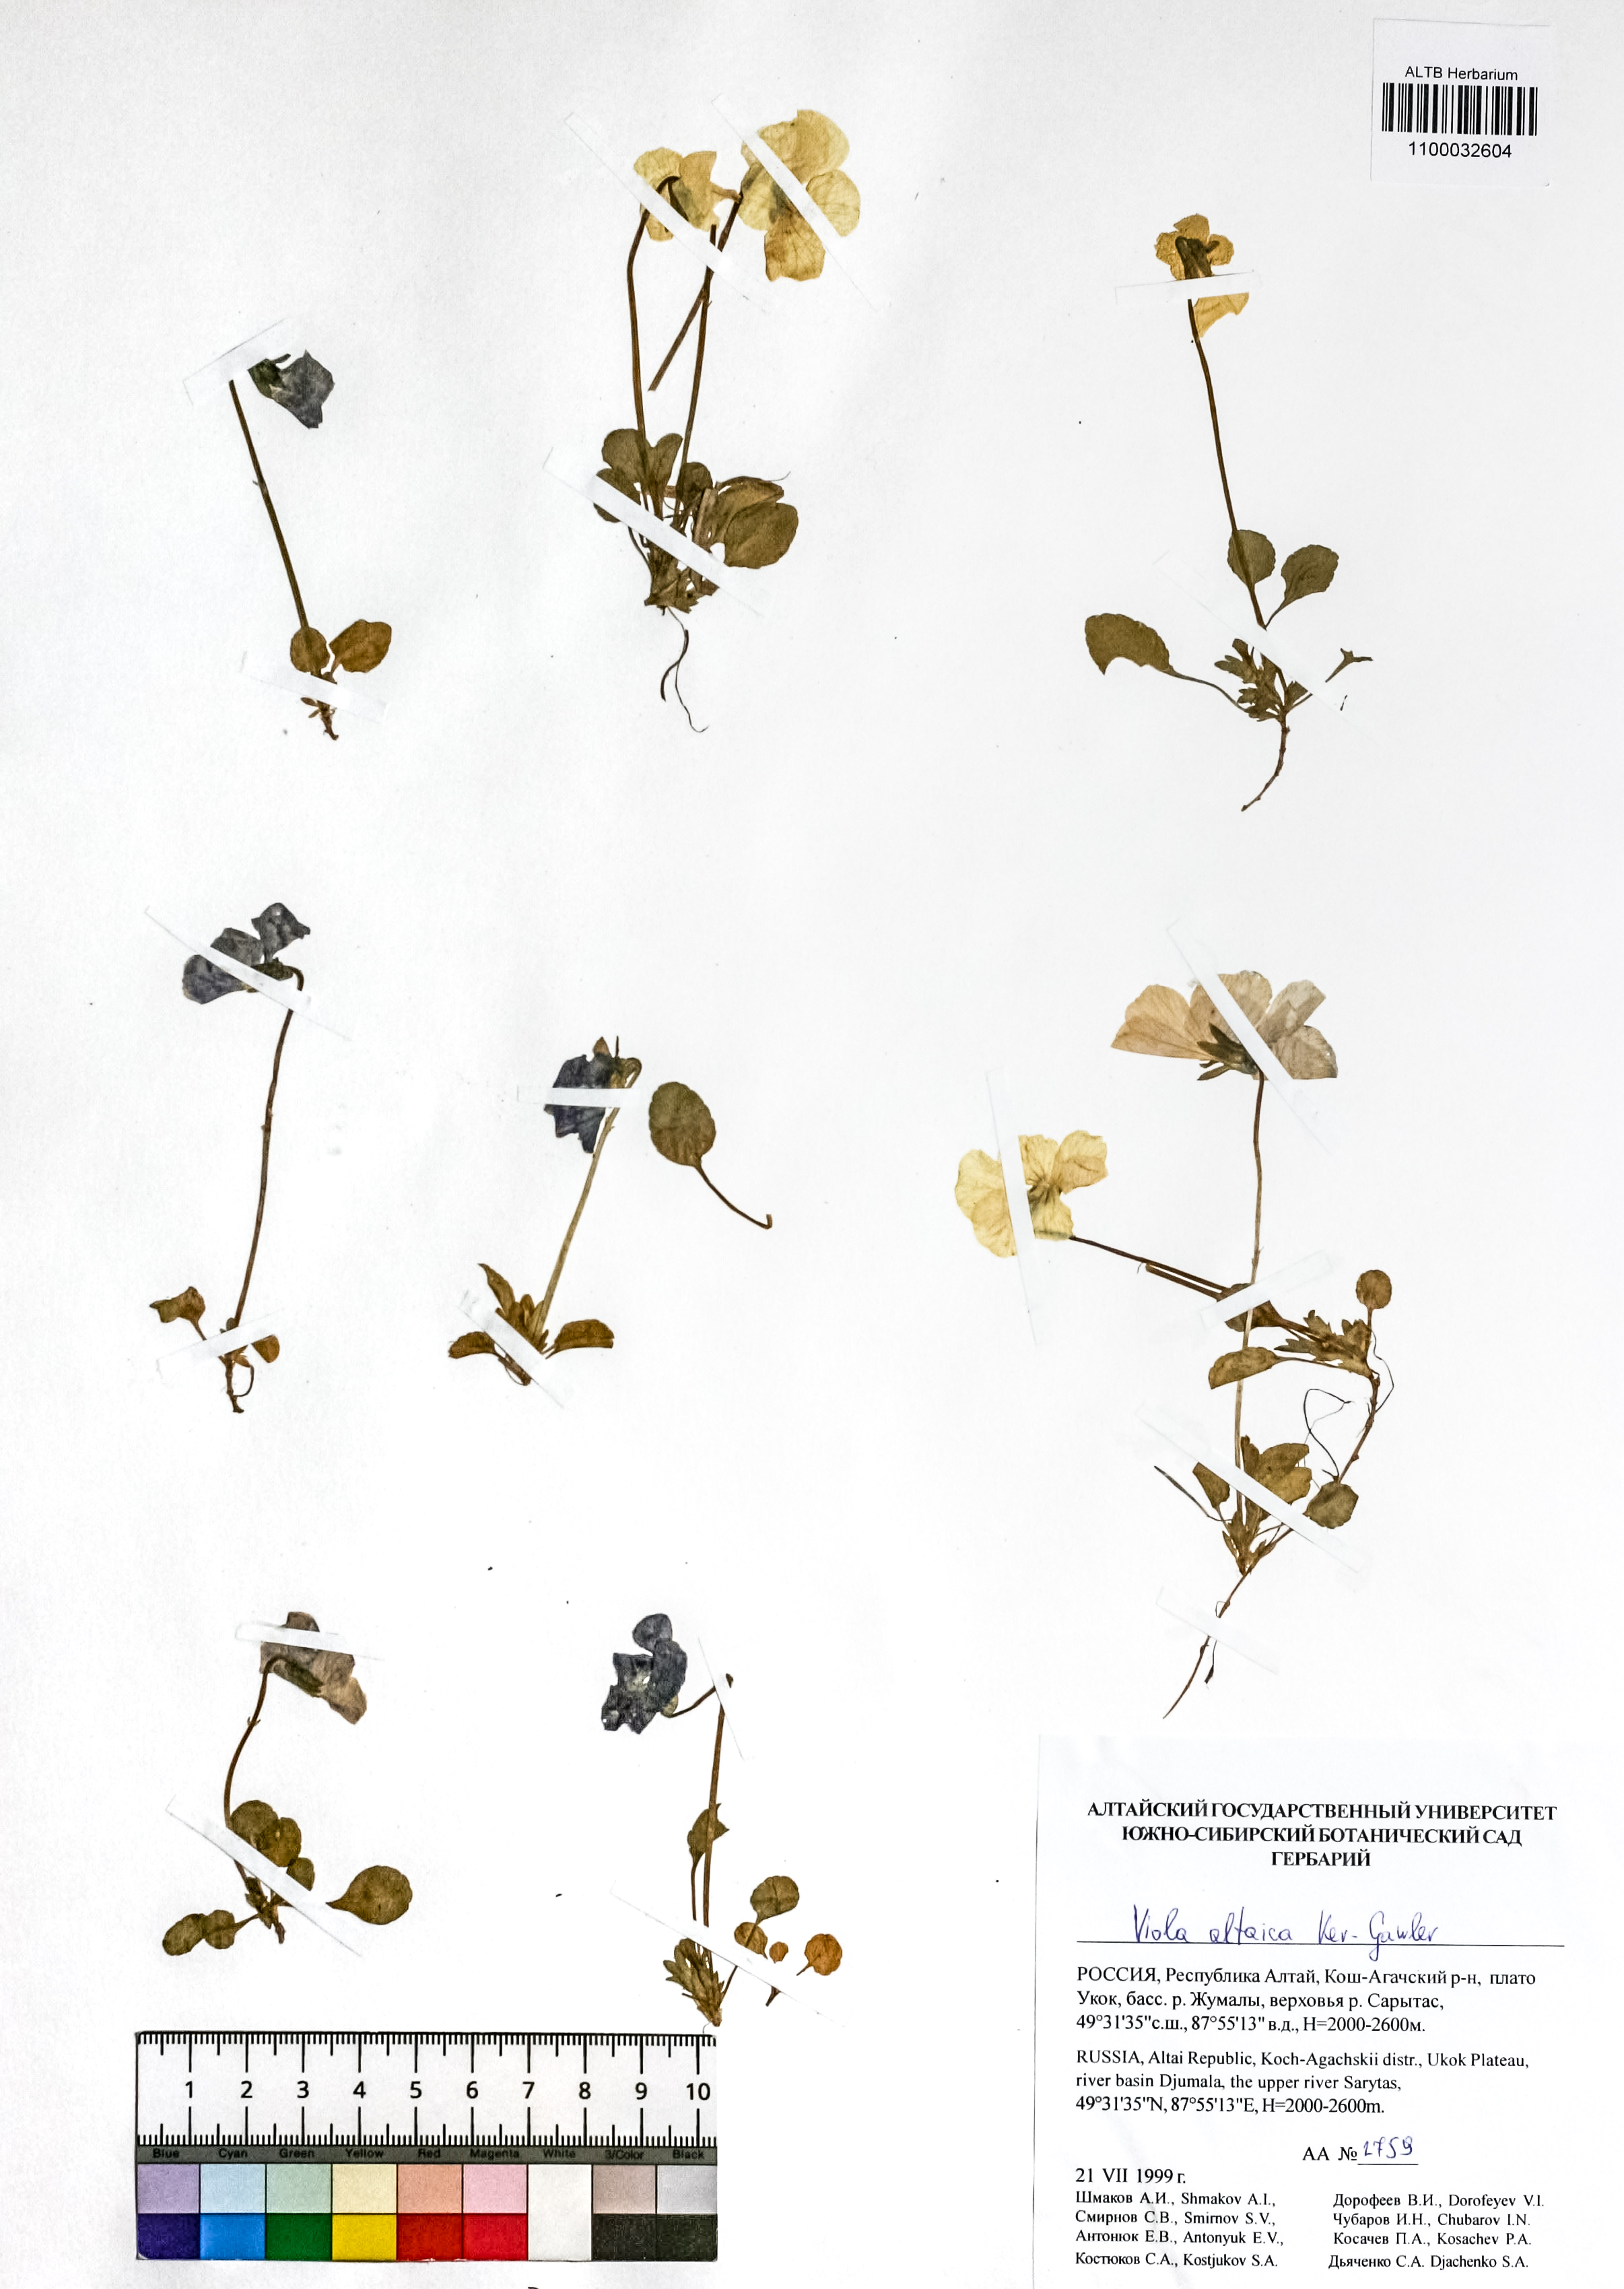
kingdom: Plantae
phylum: Tracheophyta
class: Magnoliopsida
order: Malpighiales
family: Violaceae
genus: Viola
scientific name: Viola altaica
